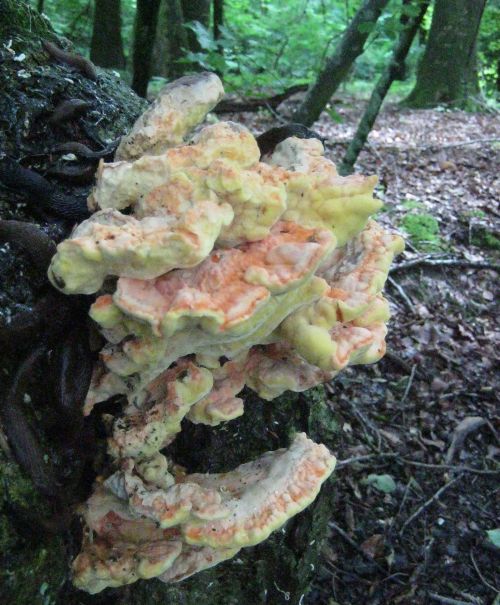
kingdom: Fungi
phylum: Basidiomycota
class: Agaricomycetes
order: Polyporales
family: Laetiporaceae
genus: Laetiporus
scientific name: Laetiporus sulphureus
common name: svovlporesvamp
